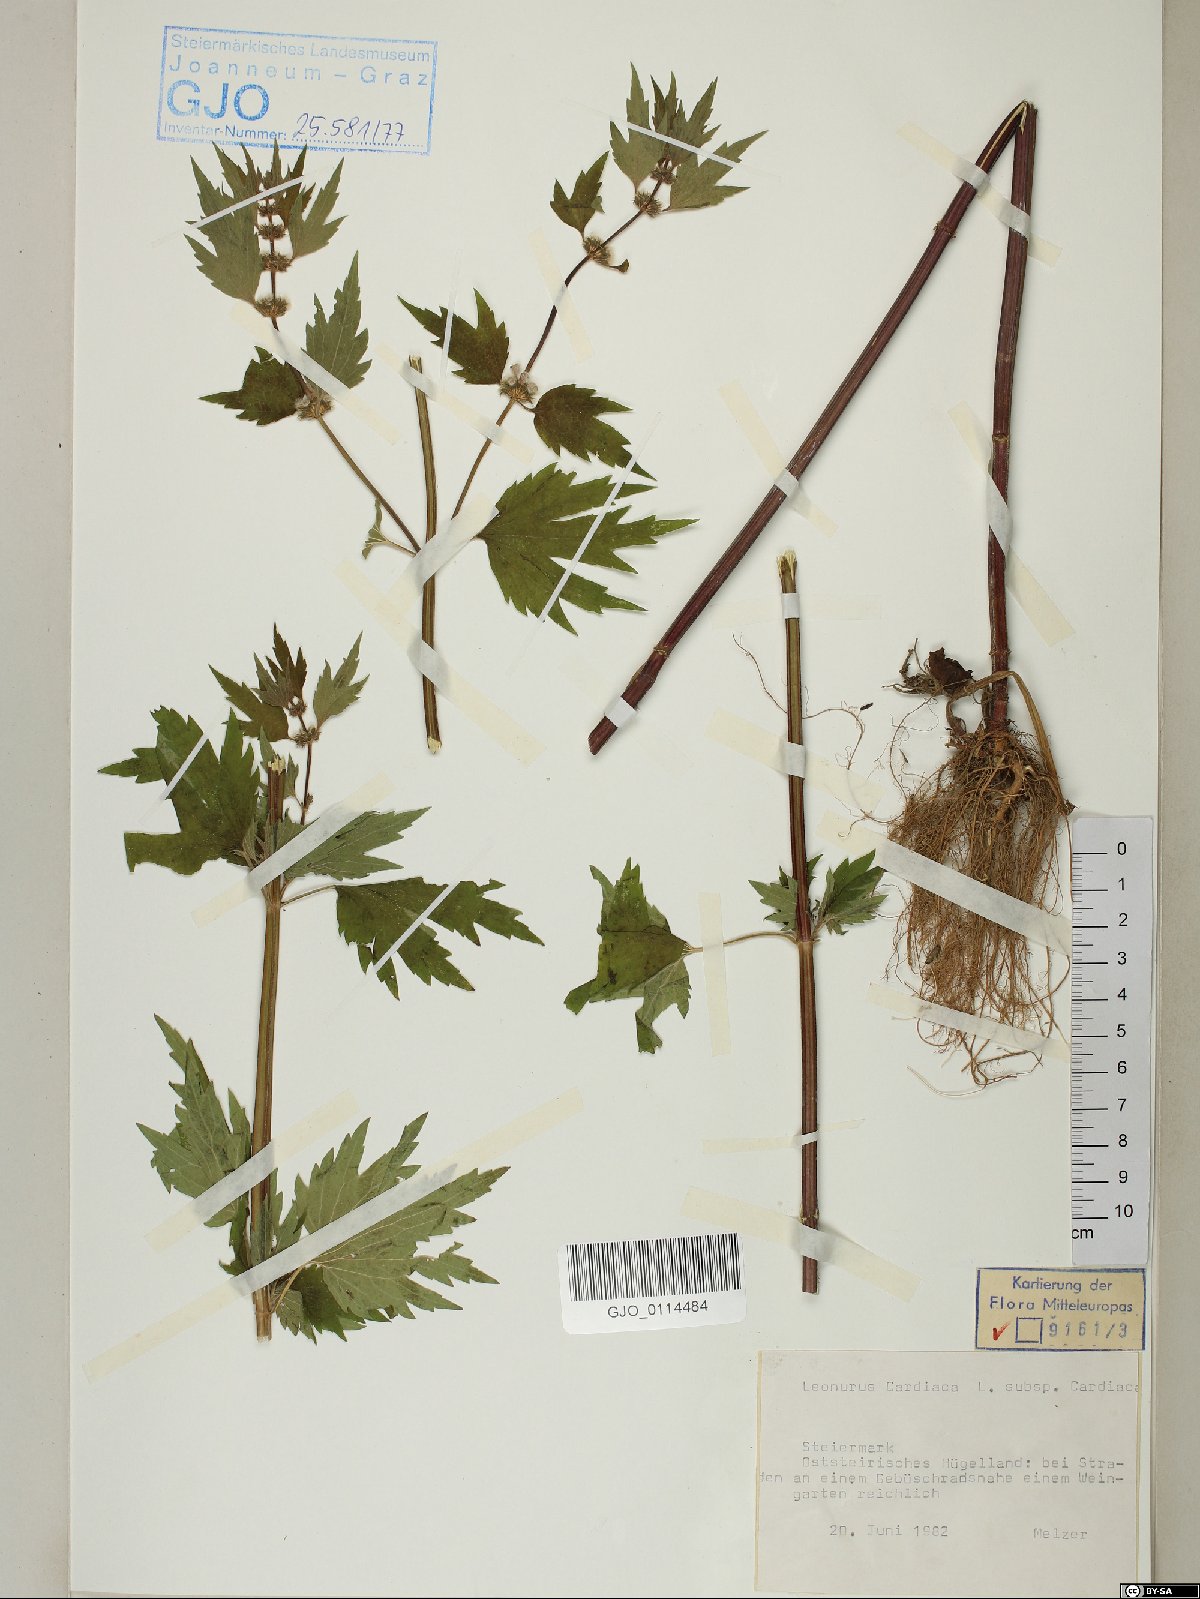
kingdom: Plantae
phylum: Tracheophyta
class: Magnoliopsida
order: Lamiales
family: Lamiaceae
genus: Leonurus
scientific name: Leonurus cardiaca
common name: Motherwort
